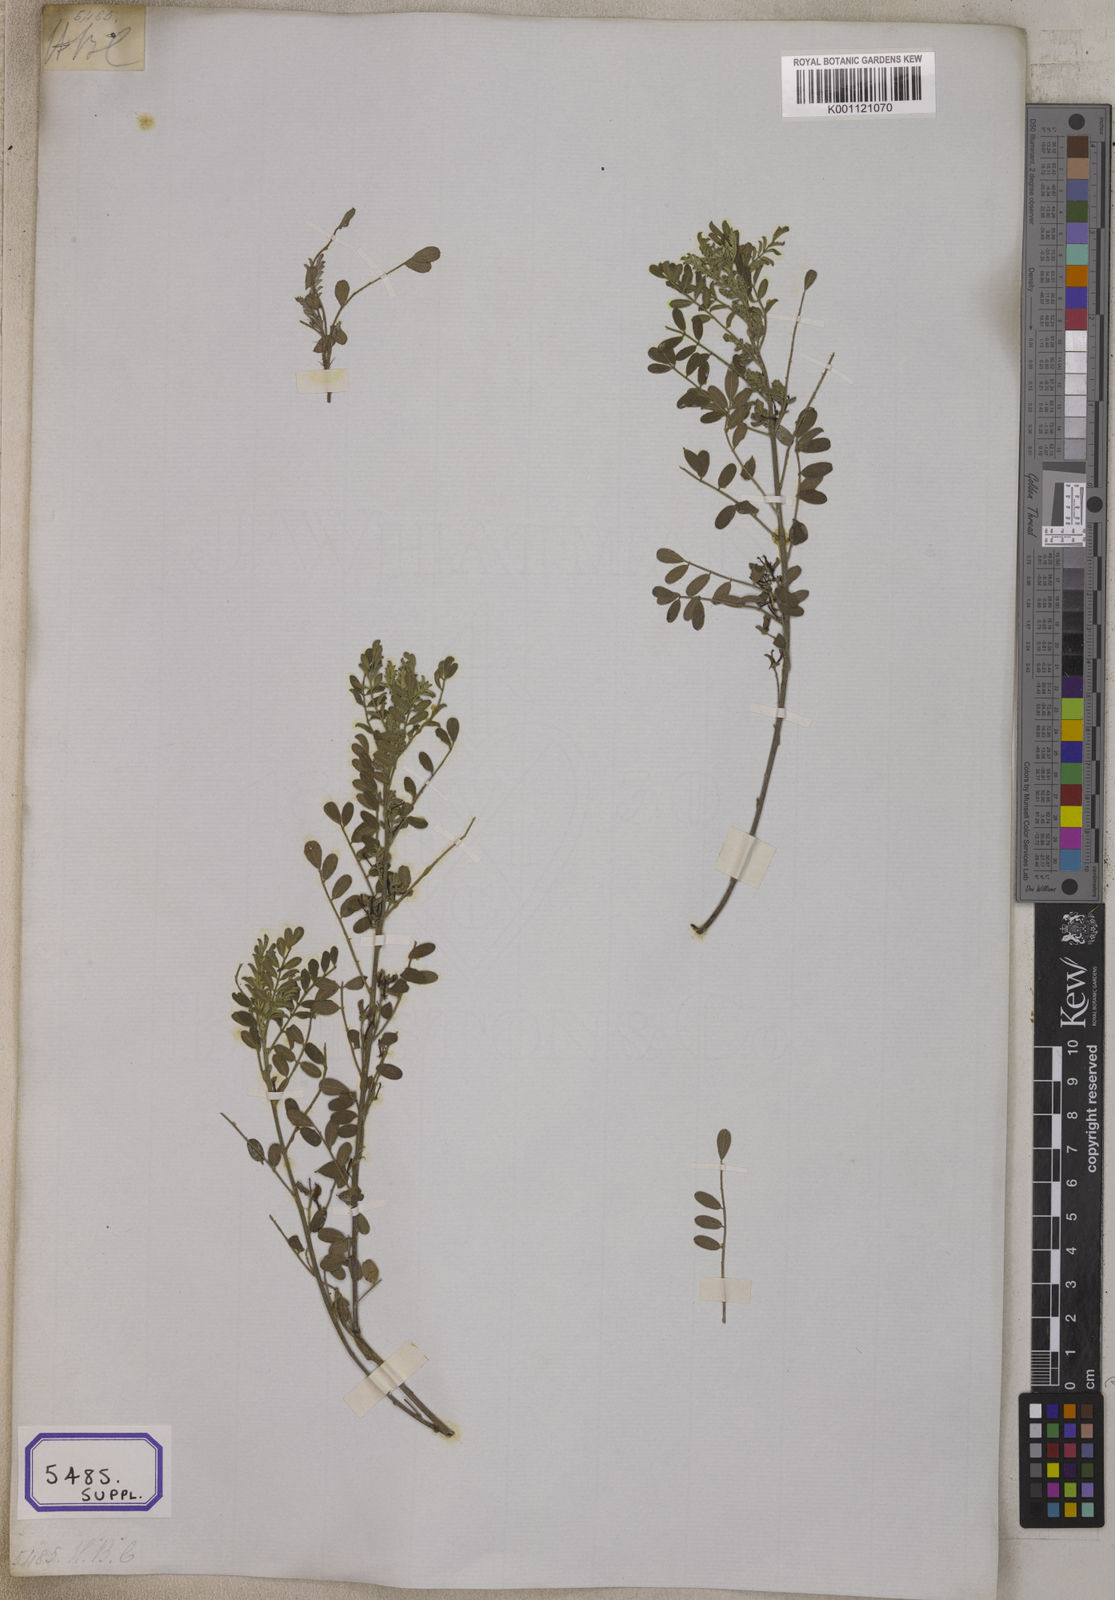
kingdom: Plantae
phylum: Tracheophyta
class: Magnoliopsida
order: Fabales
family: Fabaceae
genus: Indigofera
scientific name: Indigofera wightii
